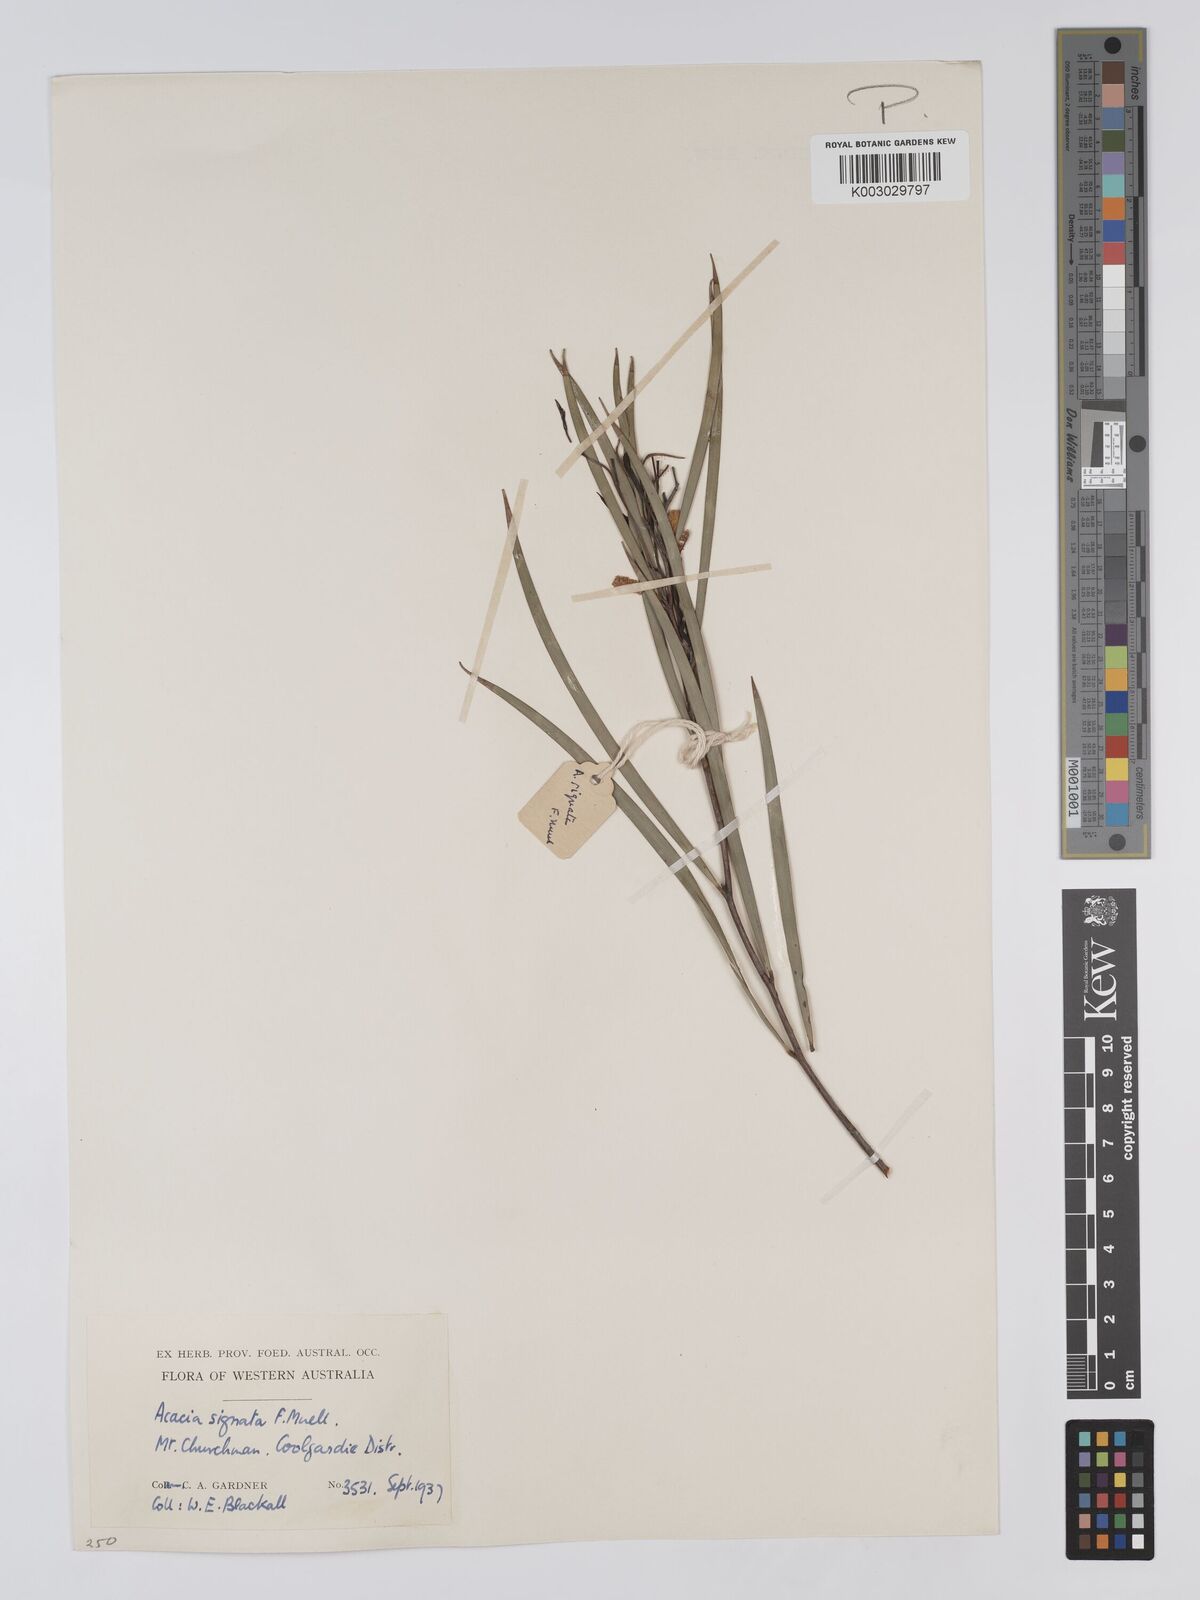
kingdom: Plantae
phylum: Tracheophyta
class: Magnoliopsida
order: Fabales
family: Fabaceae
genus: Acacia
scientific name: Acacia signata
